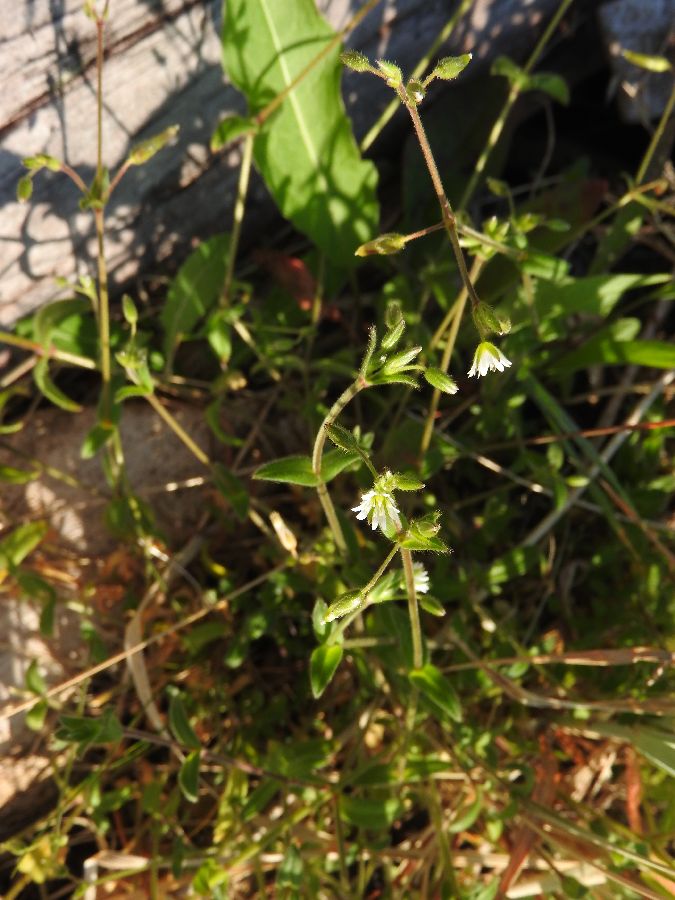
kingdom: Plantae
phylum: Tracheophyta
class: Magnoliopsida
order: Caryophyllales
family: Caryophyllaceae
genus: Cerastium
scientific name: Cerastium holosteoides
